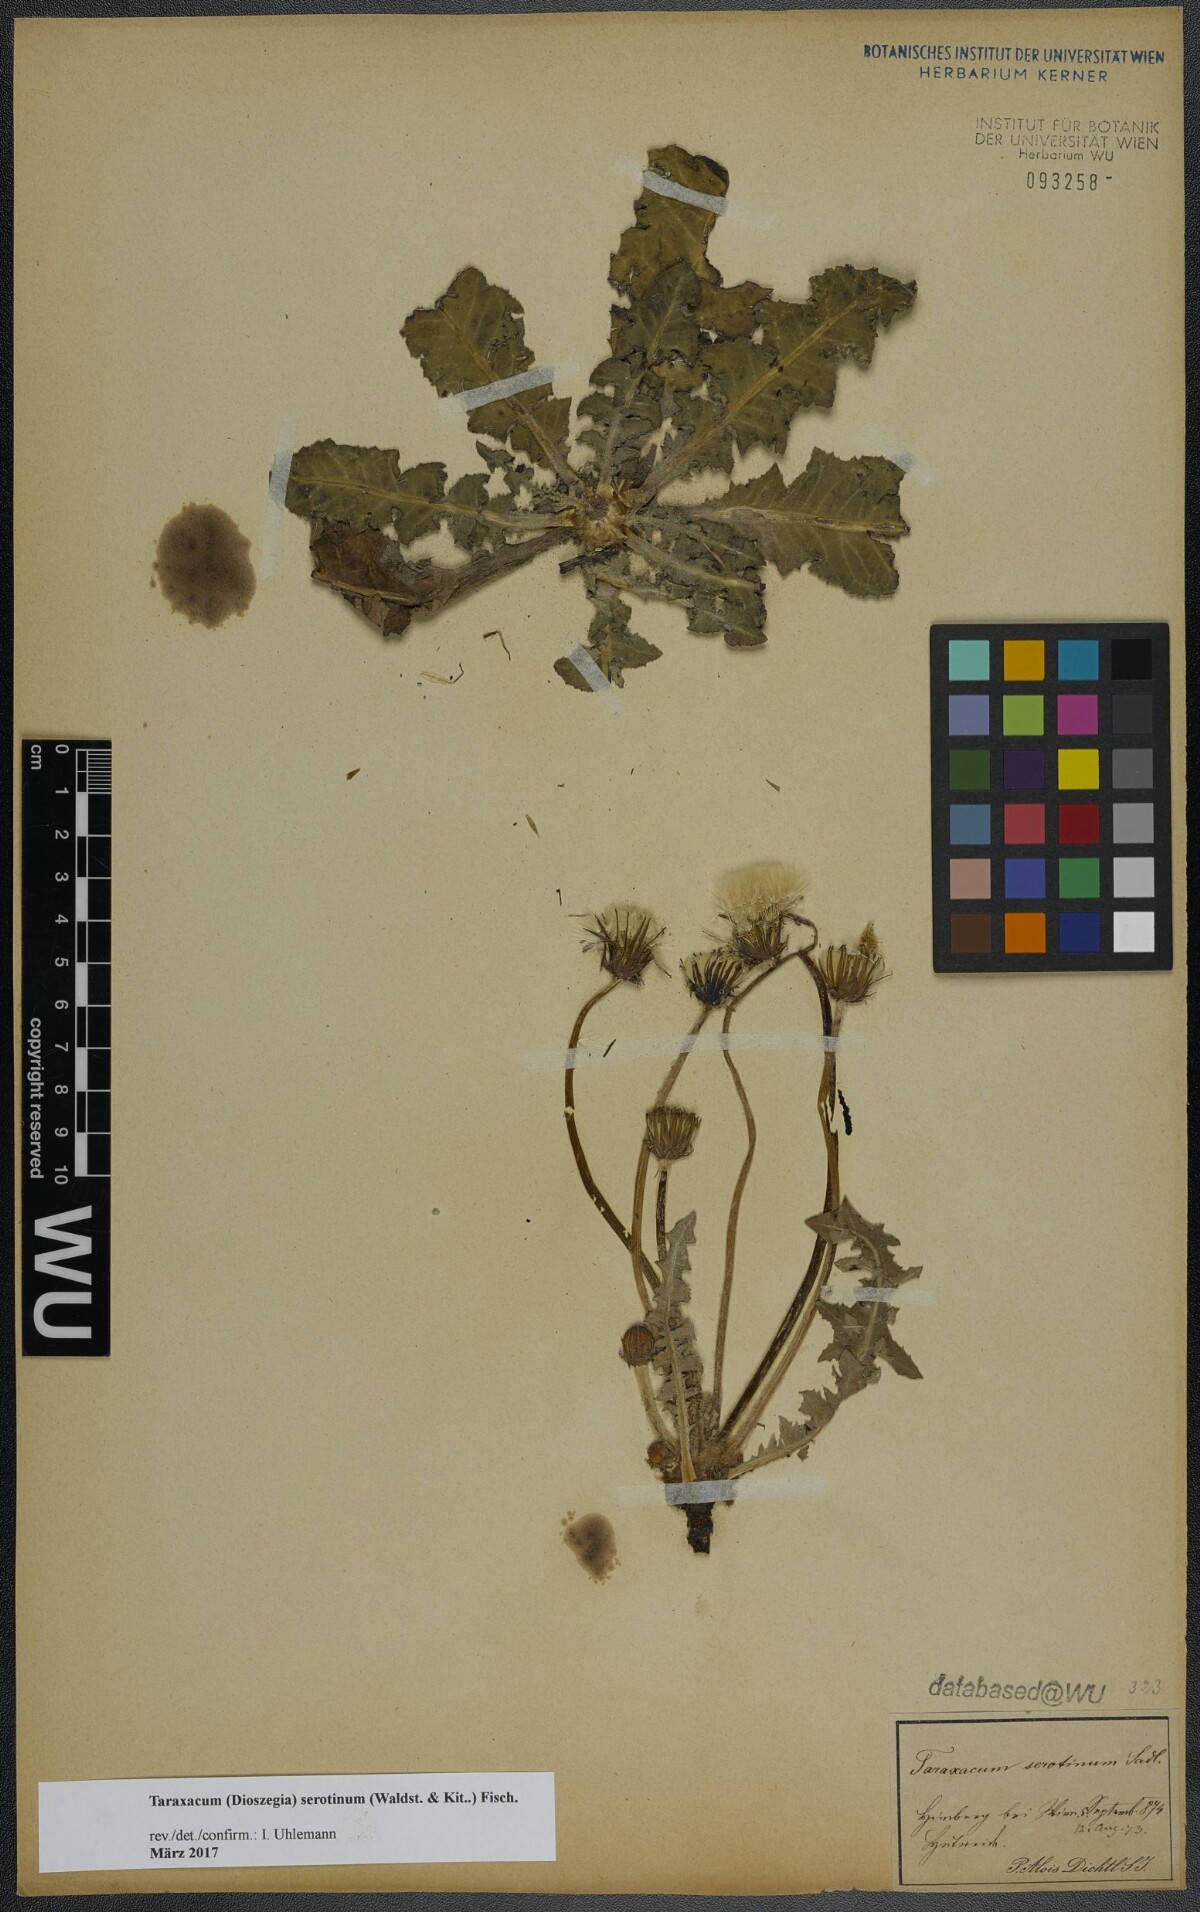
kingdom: Plantae
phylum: Tracheophyta
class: Magnoliopsida
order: Asterales
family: Asteraceae
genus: Taraxacum
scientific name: Taraxacum serotinum
